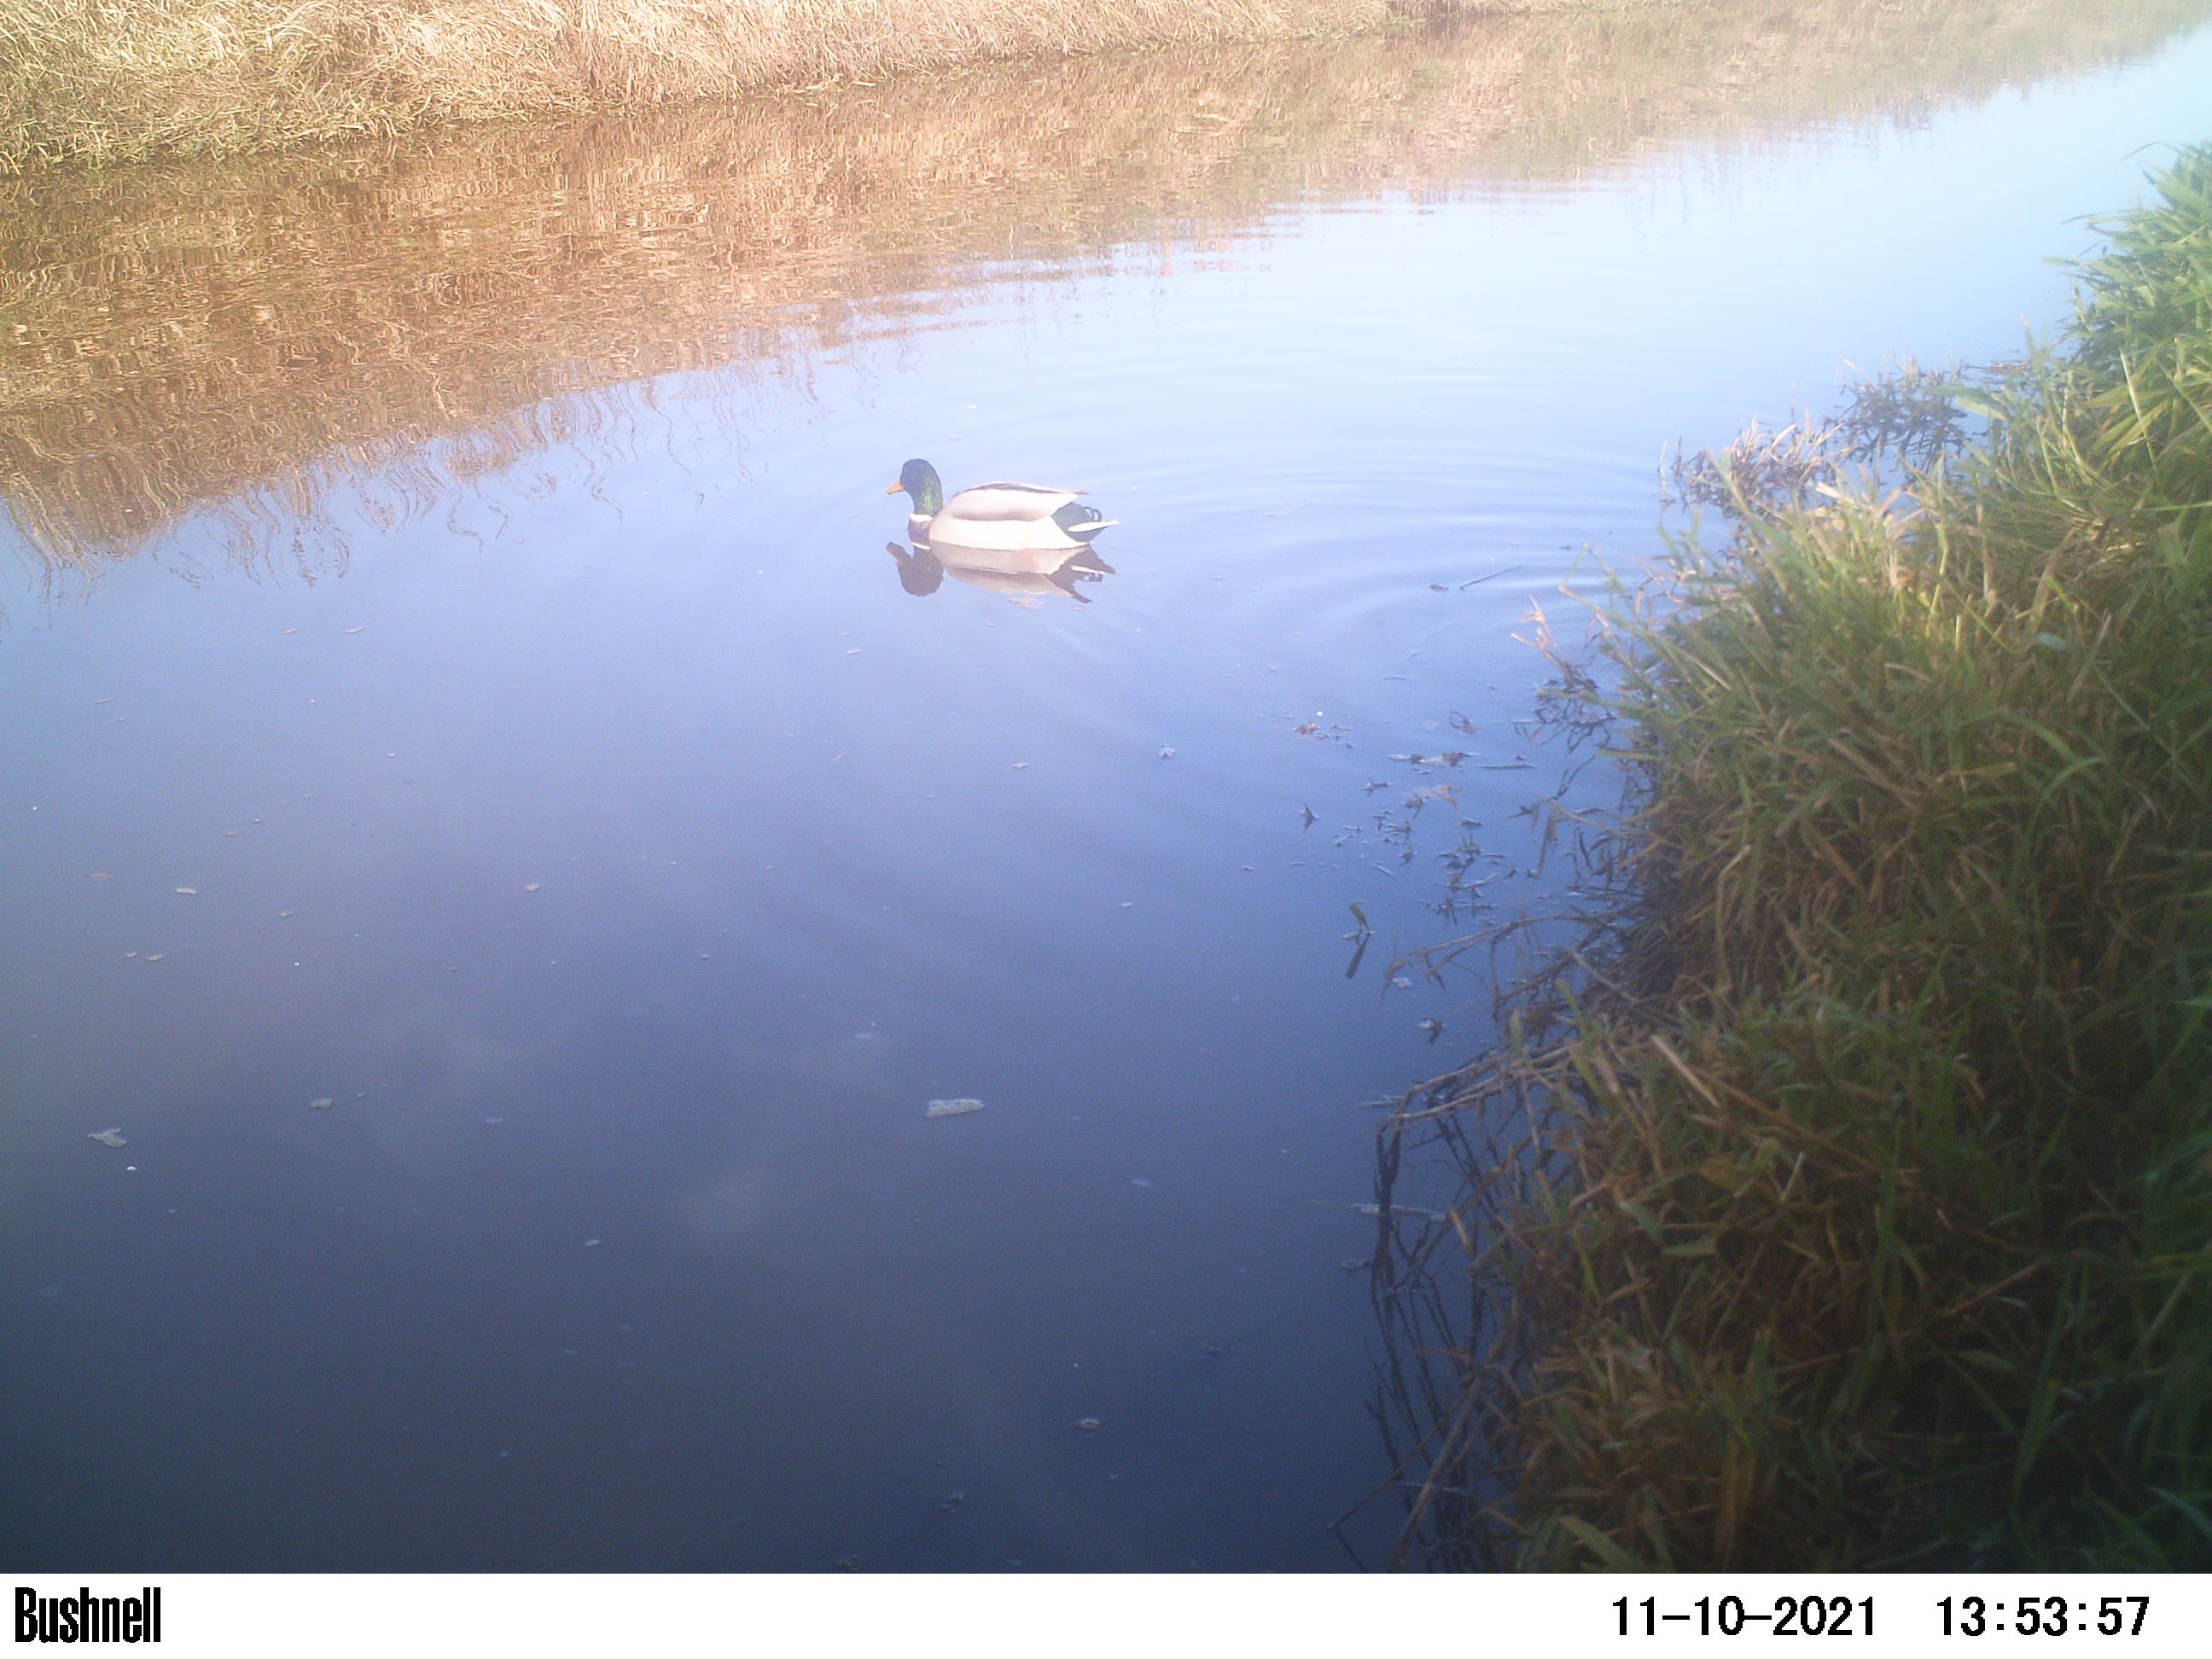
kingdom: Animalia
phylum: Chordata
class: Aves
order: Anseriformes
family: Anatidae
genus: Anas
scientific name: Anas
